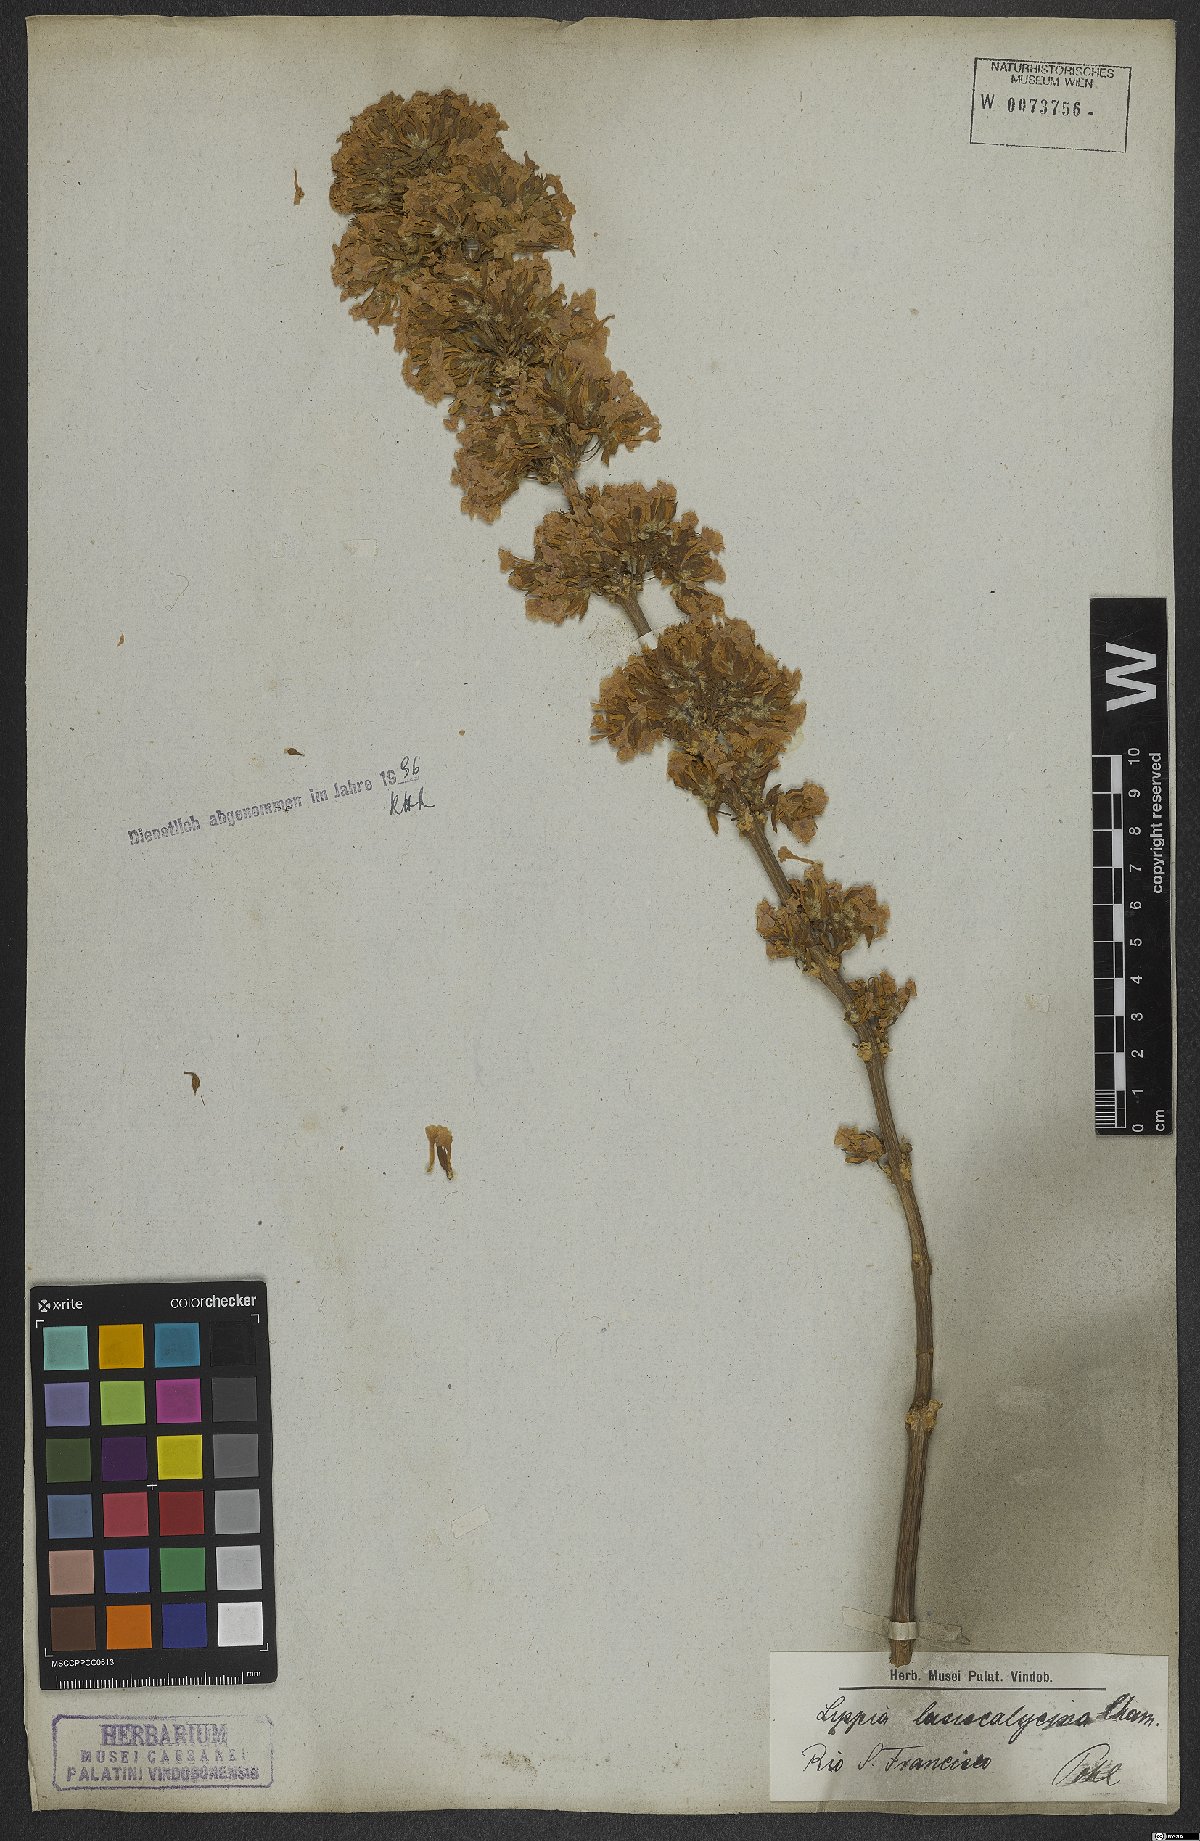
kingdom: Plantae
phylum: Tracheophyta
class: Magnoliopsida
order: Lamiales
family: Verbenaceae
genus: Lippia
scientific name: Lippia lasiocalycina
